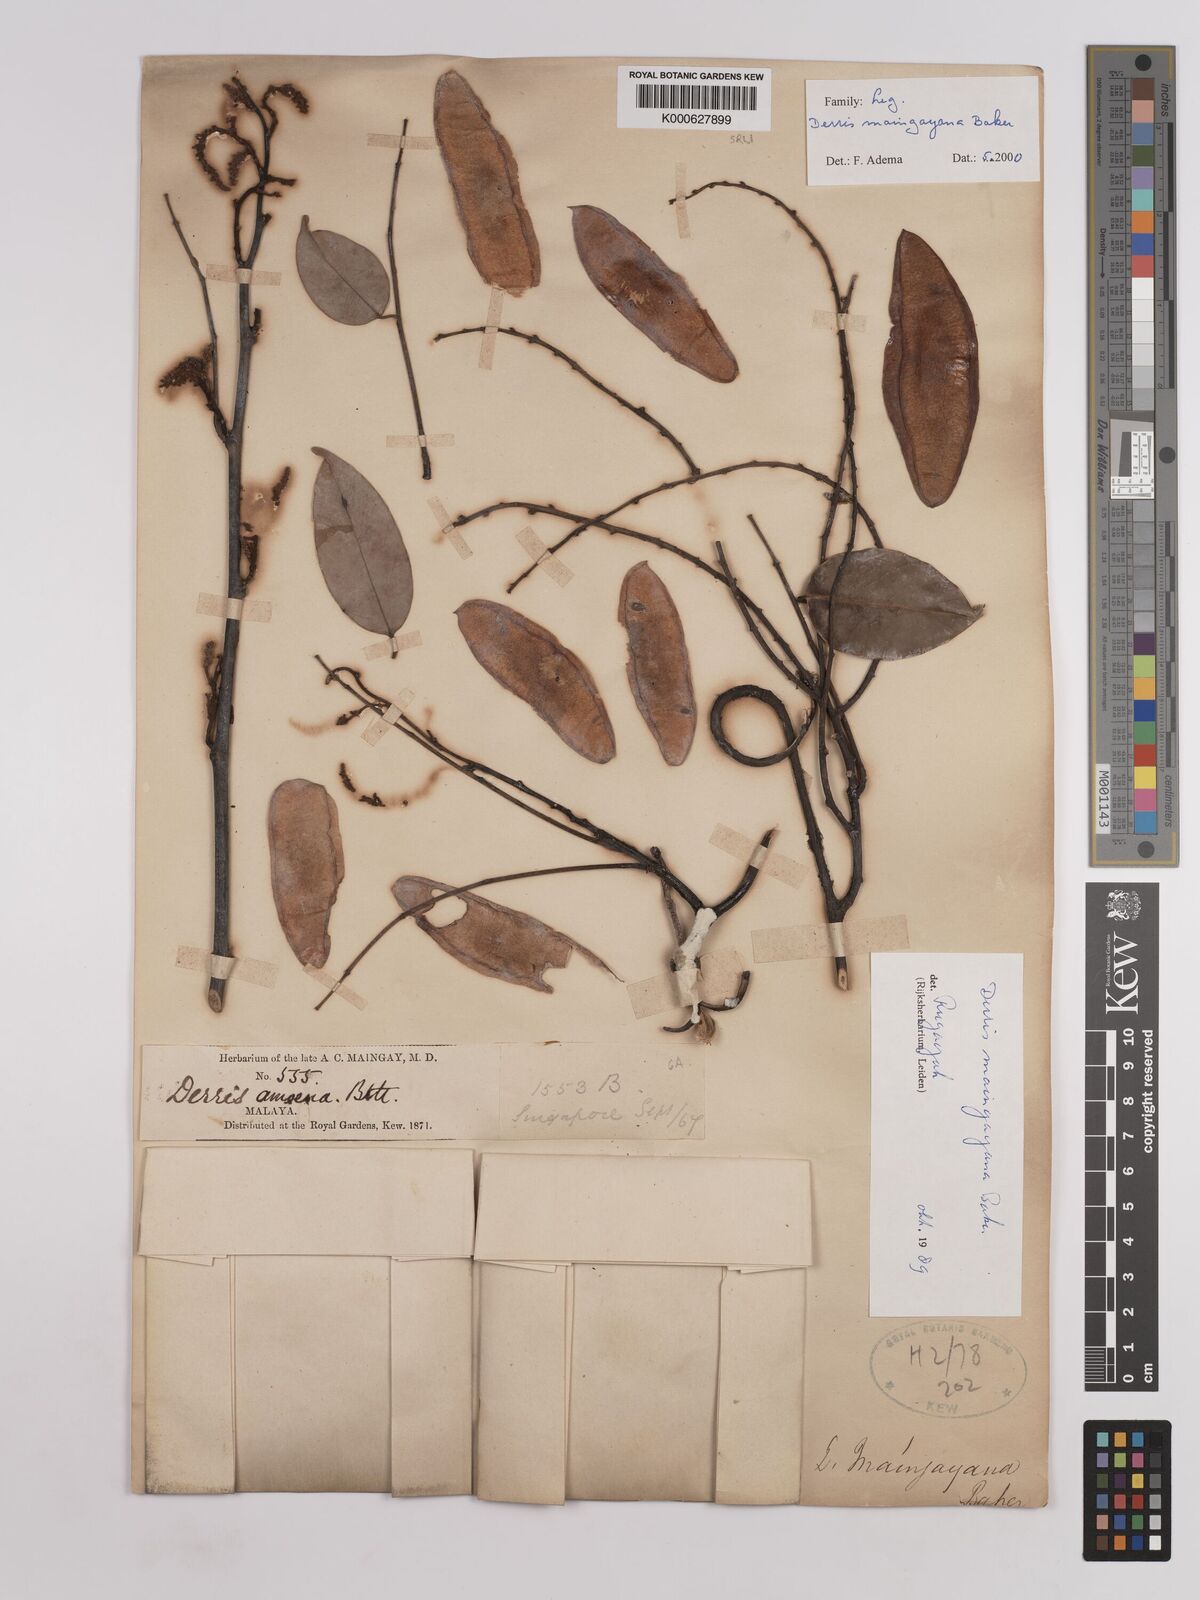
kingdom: Plantae
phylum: Tracheophyta
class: Magnoliopsida
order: Fabales
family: Fabaceae
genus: Derris
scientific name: Derris amoena
